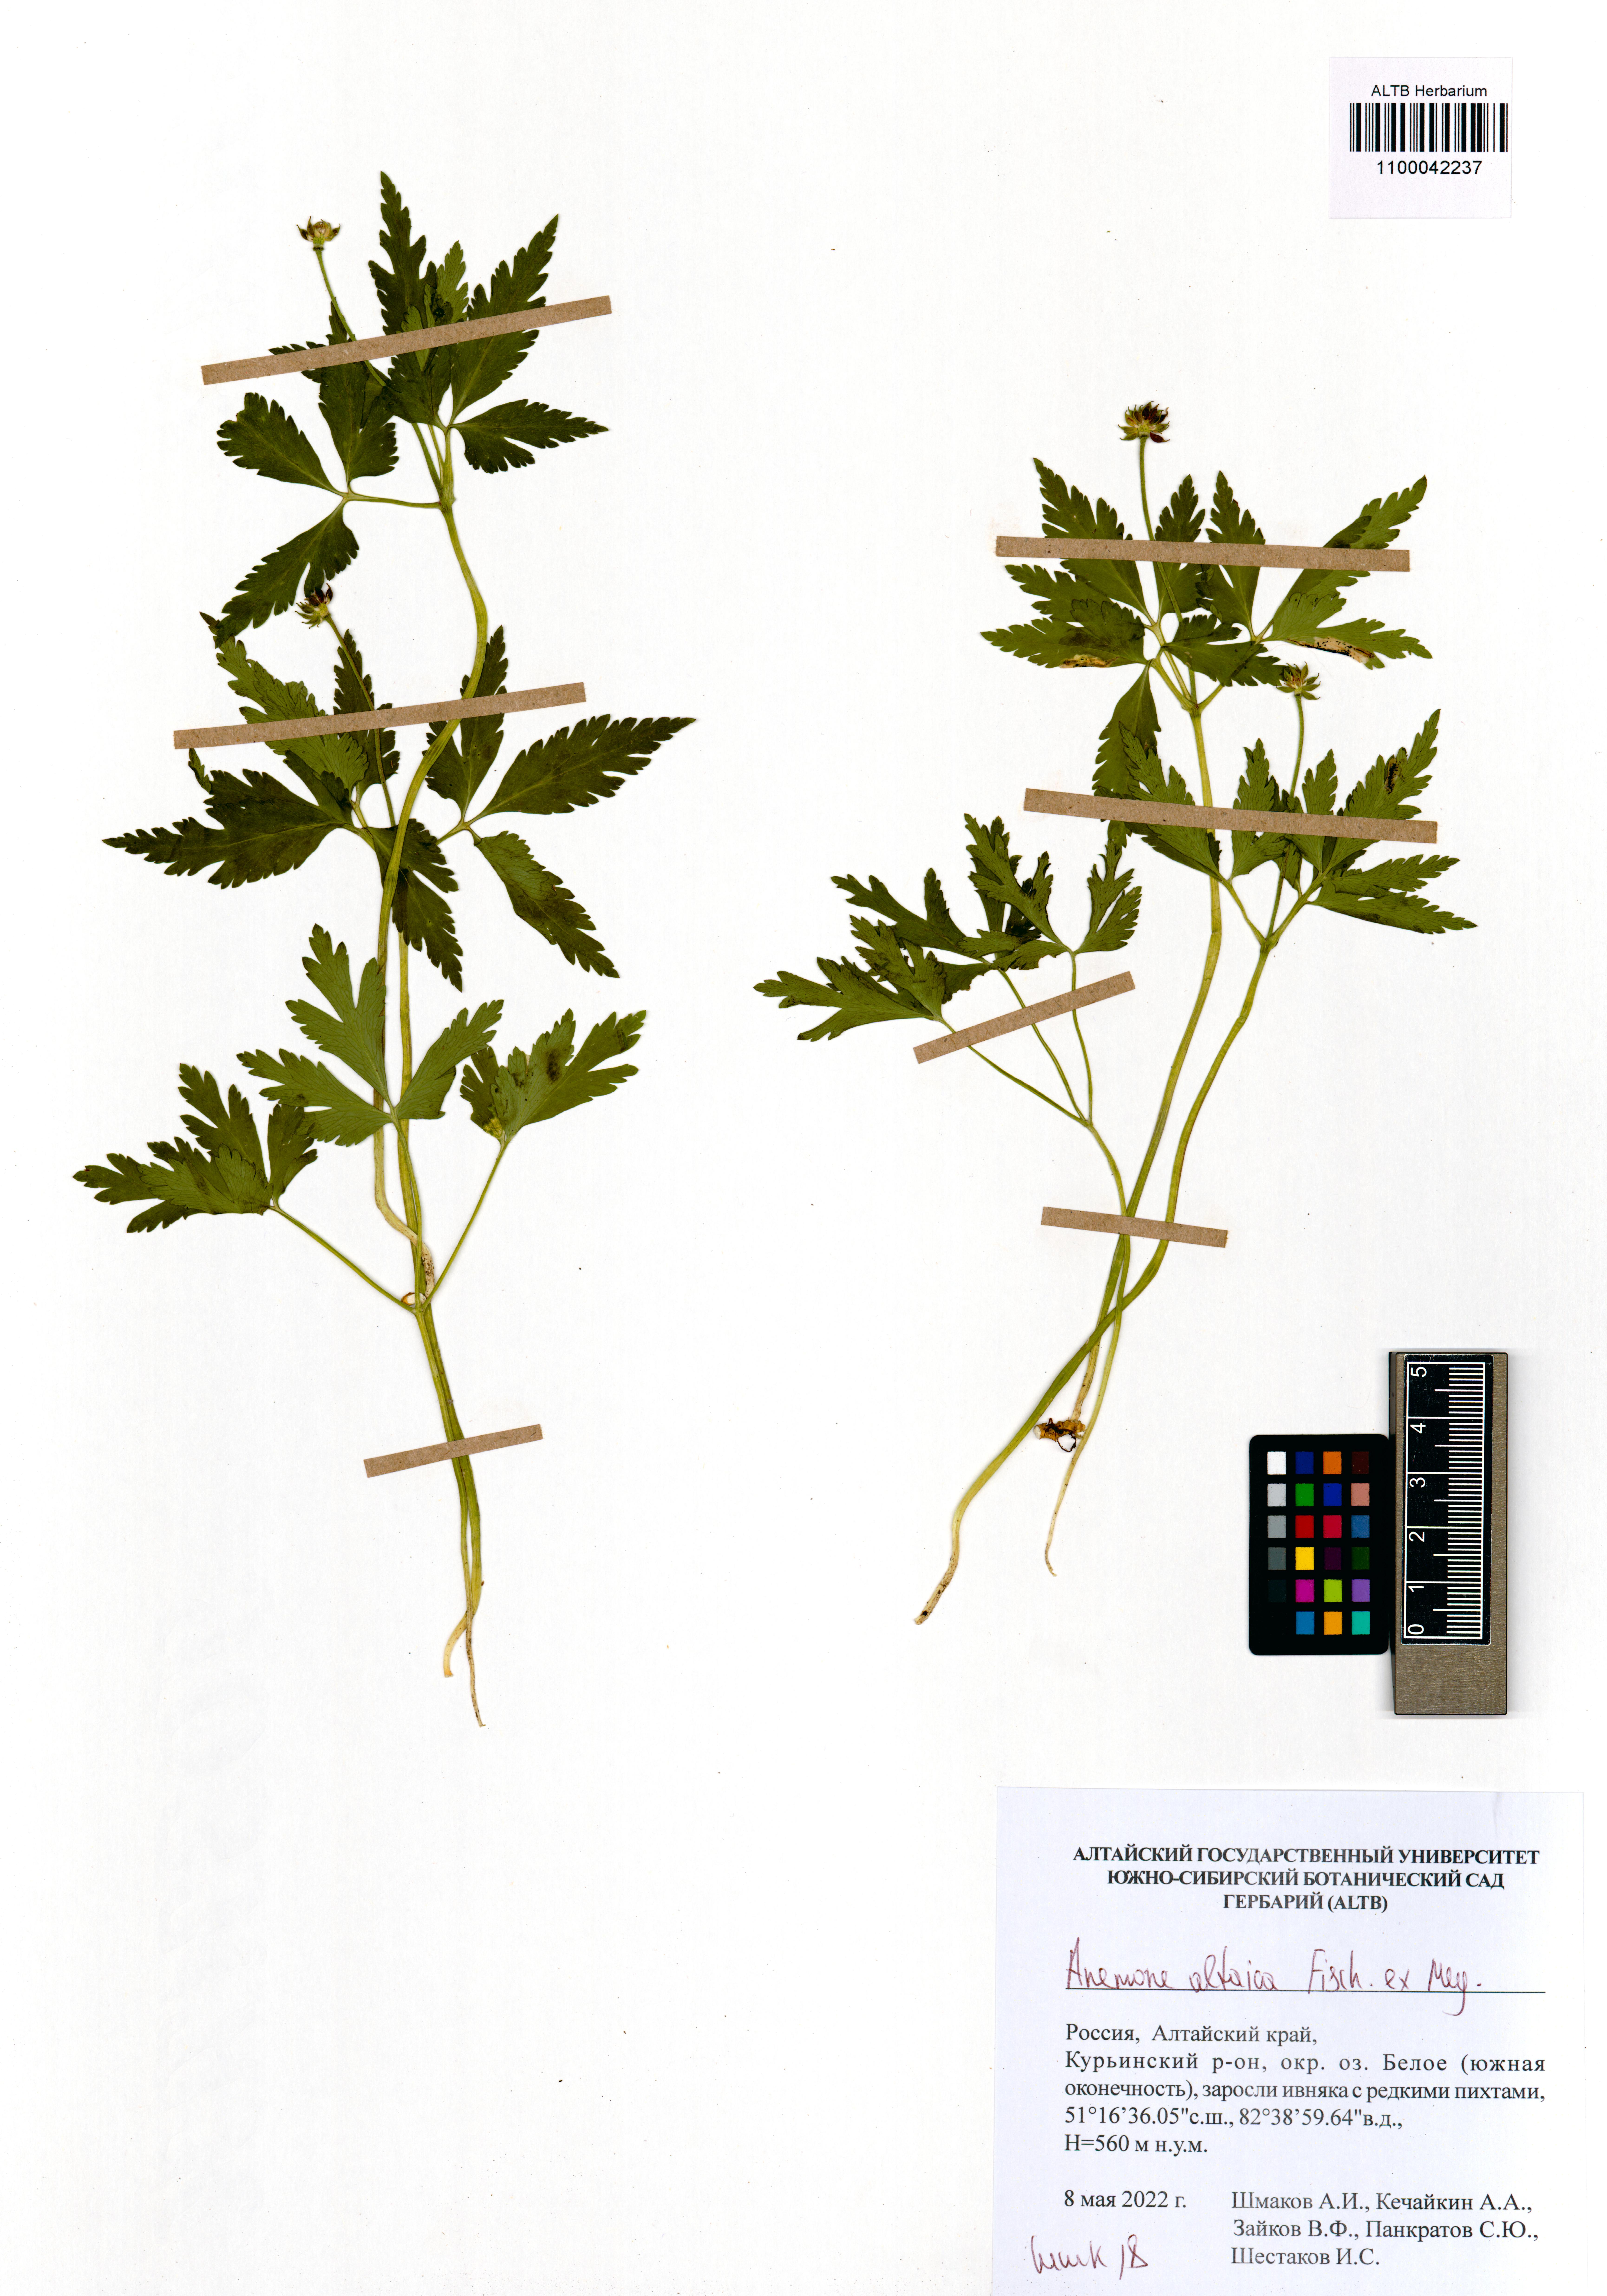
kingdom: Plantae
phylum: Tracheophyta
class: Magnoliopsida
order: Ranunculales
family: Ranunculaceae
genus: Anemone
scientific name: Anemone altaica
